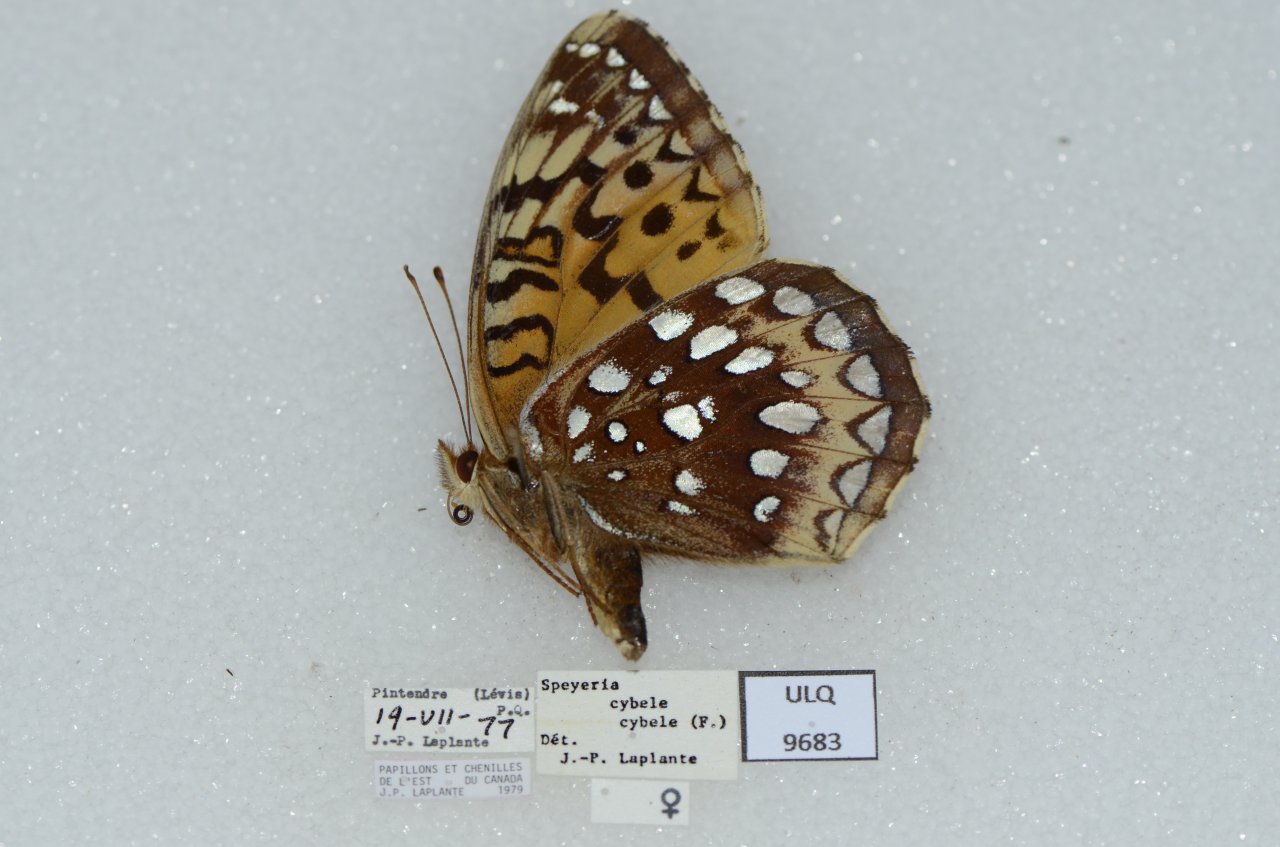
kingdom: Animalia
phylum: Arthropoda
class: Insecta
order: Lepidoptera
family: Nymphalidae
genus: Speyeria
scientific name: Speyeria atlantis
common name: Atlantis Fritillary
